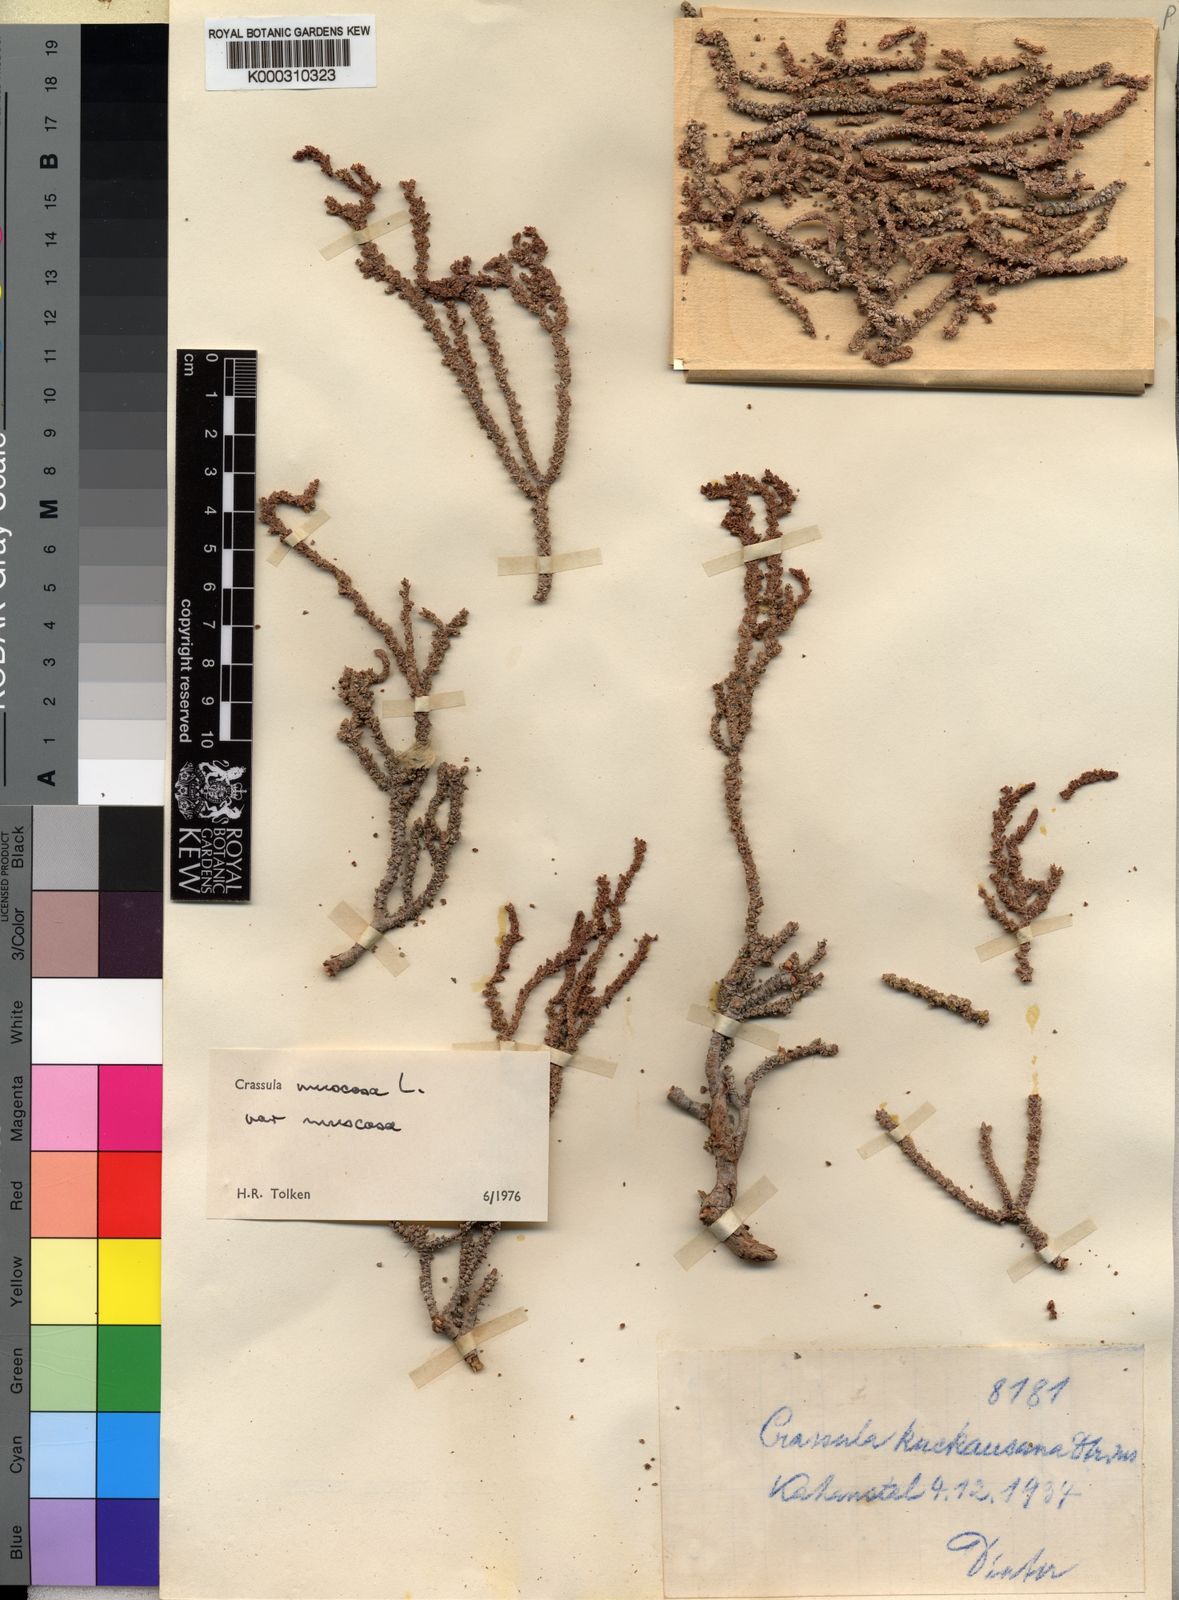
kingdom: Plantae
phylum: Tracheophyta
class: Magnoliopsida
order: Saxifragales
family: Crassulaceae
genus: Crassula
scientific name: Crassula muscosa
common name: Toy-cypress
